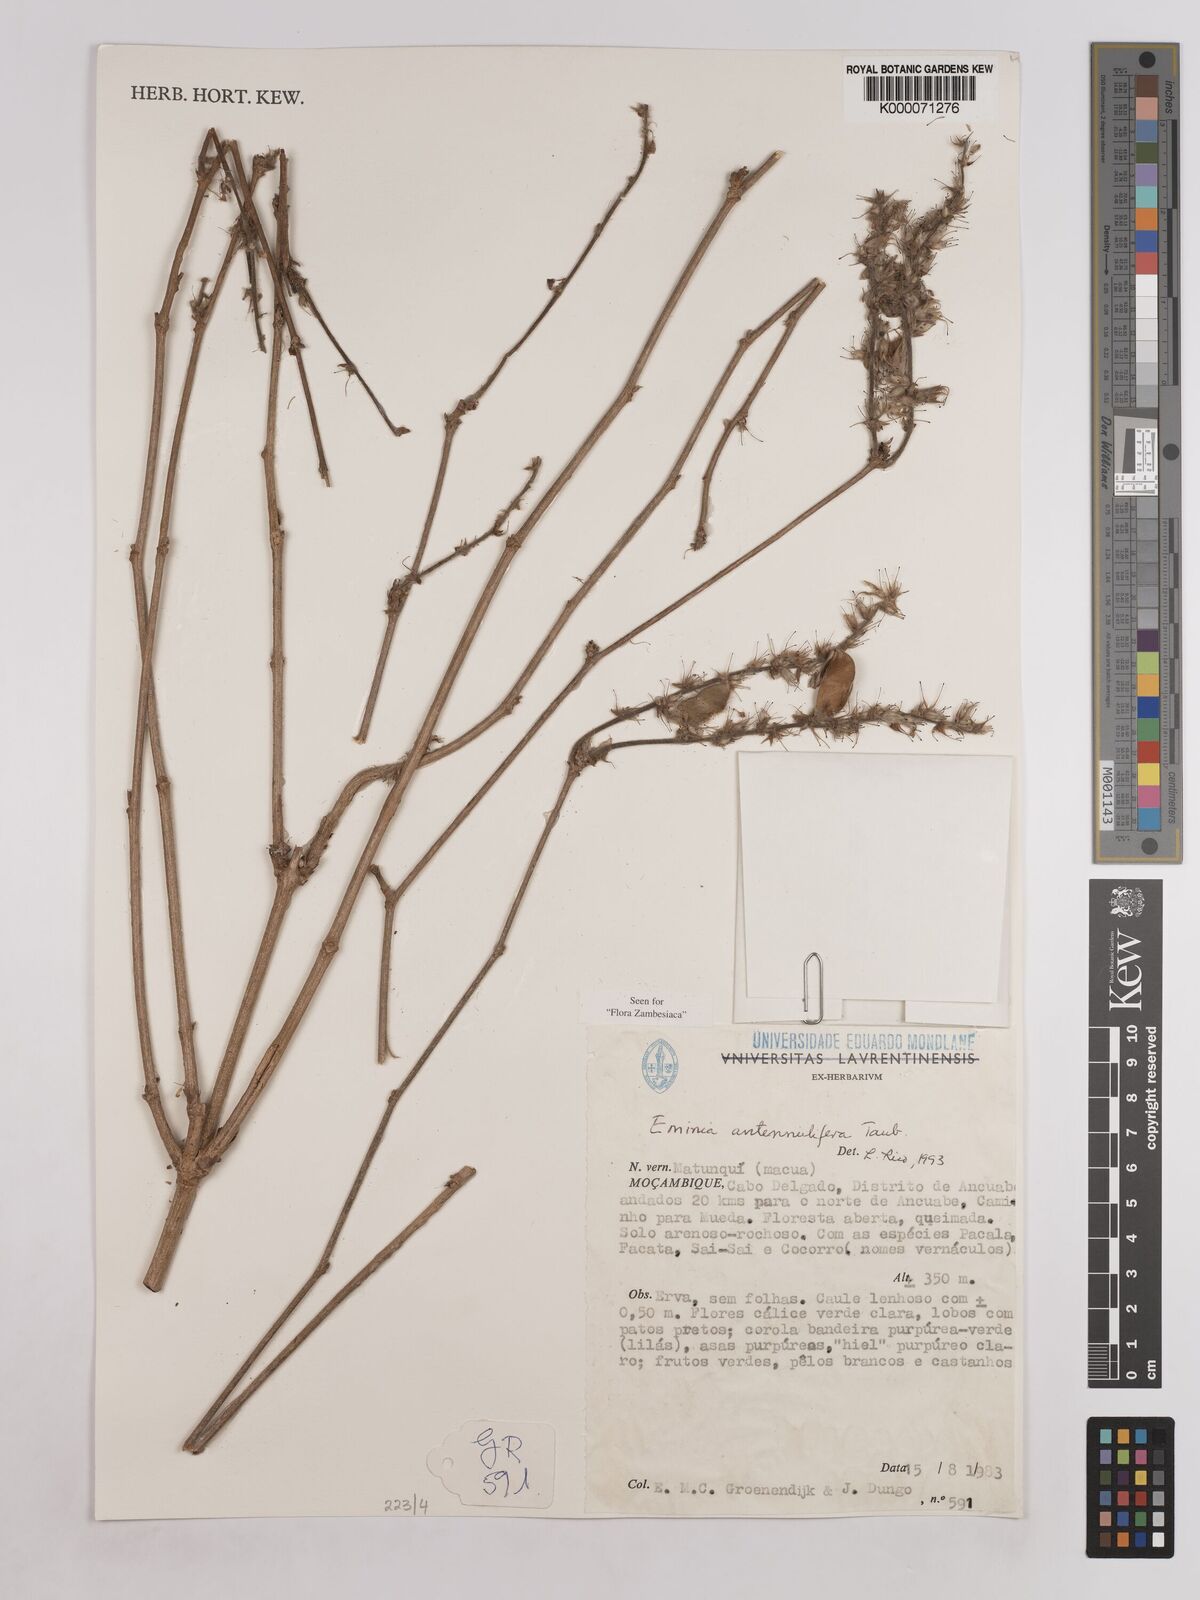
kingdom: Plantae
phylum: Tracheophyta
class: Magnoliopsida
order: Fabales
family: Fabaceae
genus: Eminia
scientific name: Eminia antennulifera
